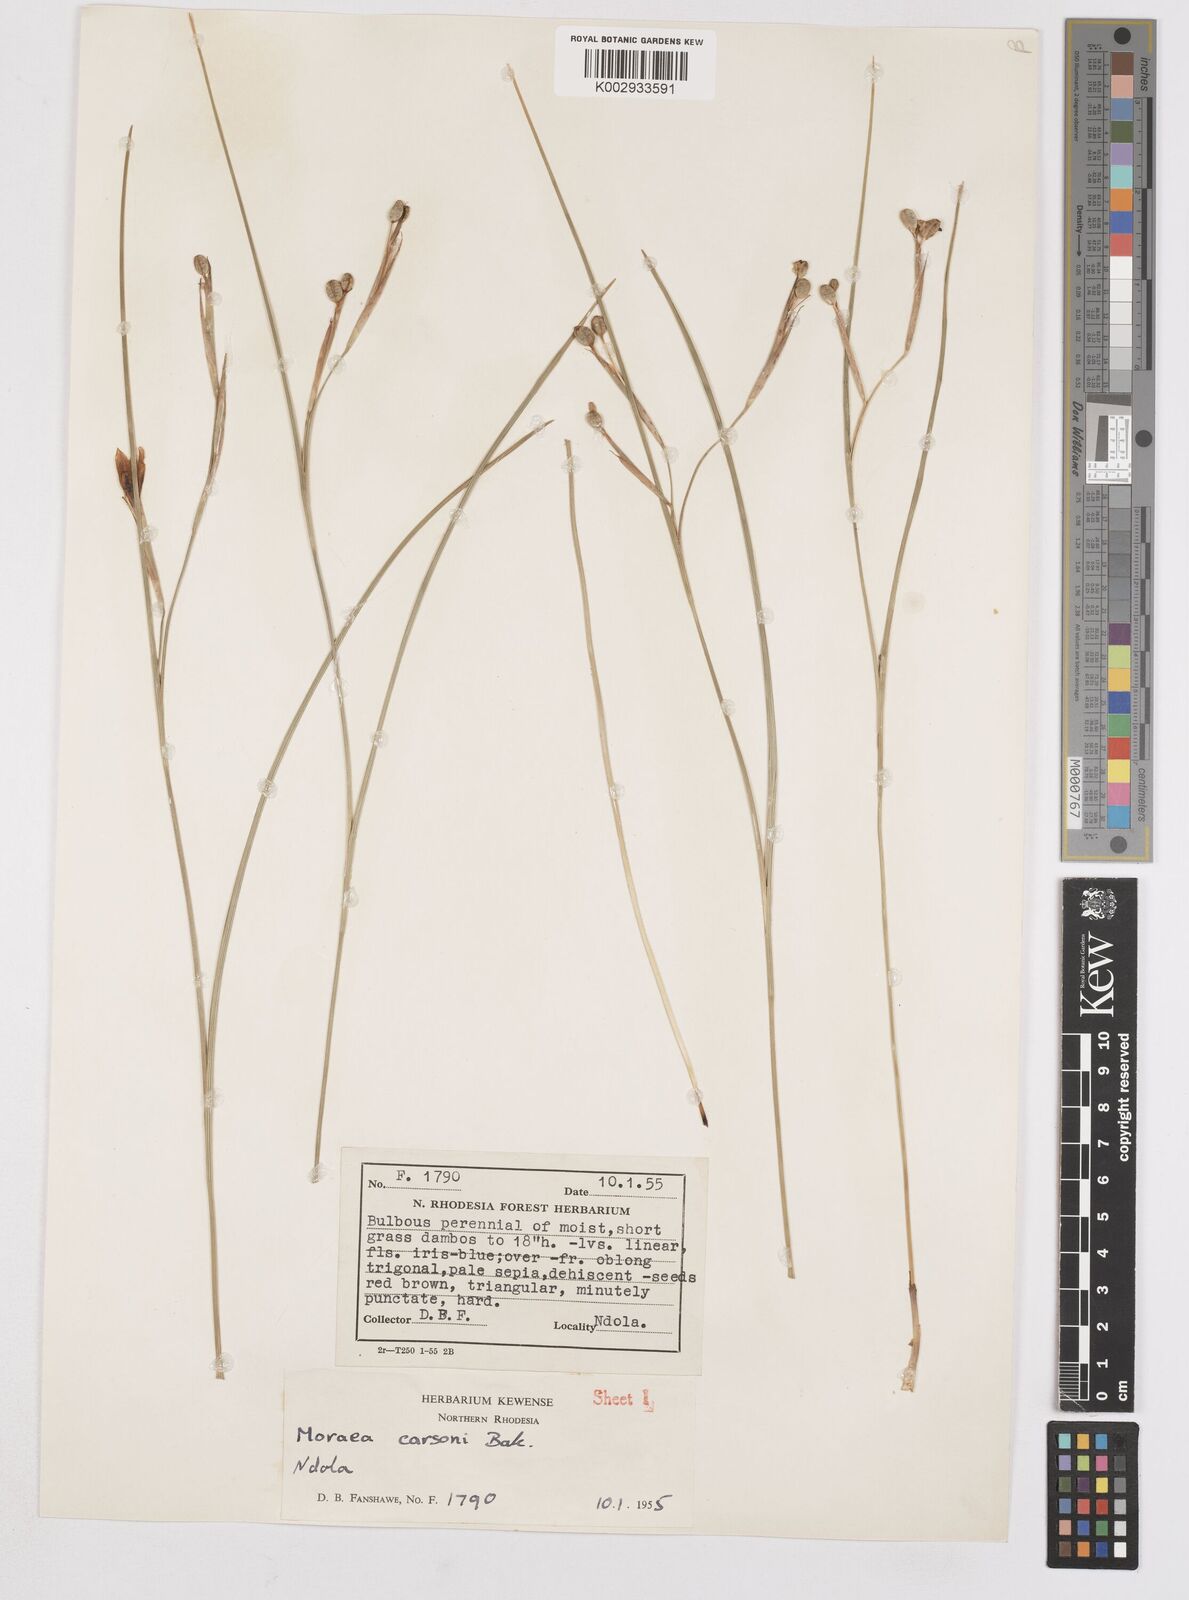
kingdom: Plantae
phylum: Tracheophyta
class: Liliopsida
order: Asparagales
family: Iridaceae
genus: Moraea
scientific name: Moraea carsonii
